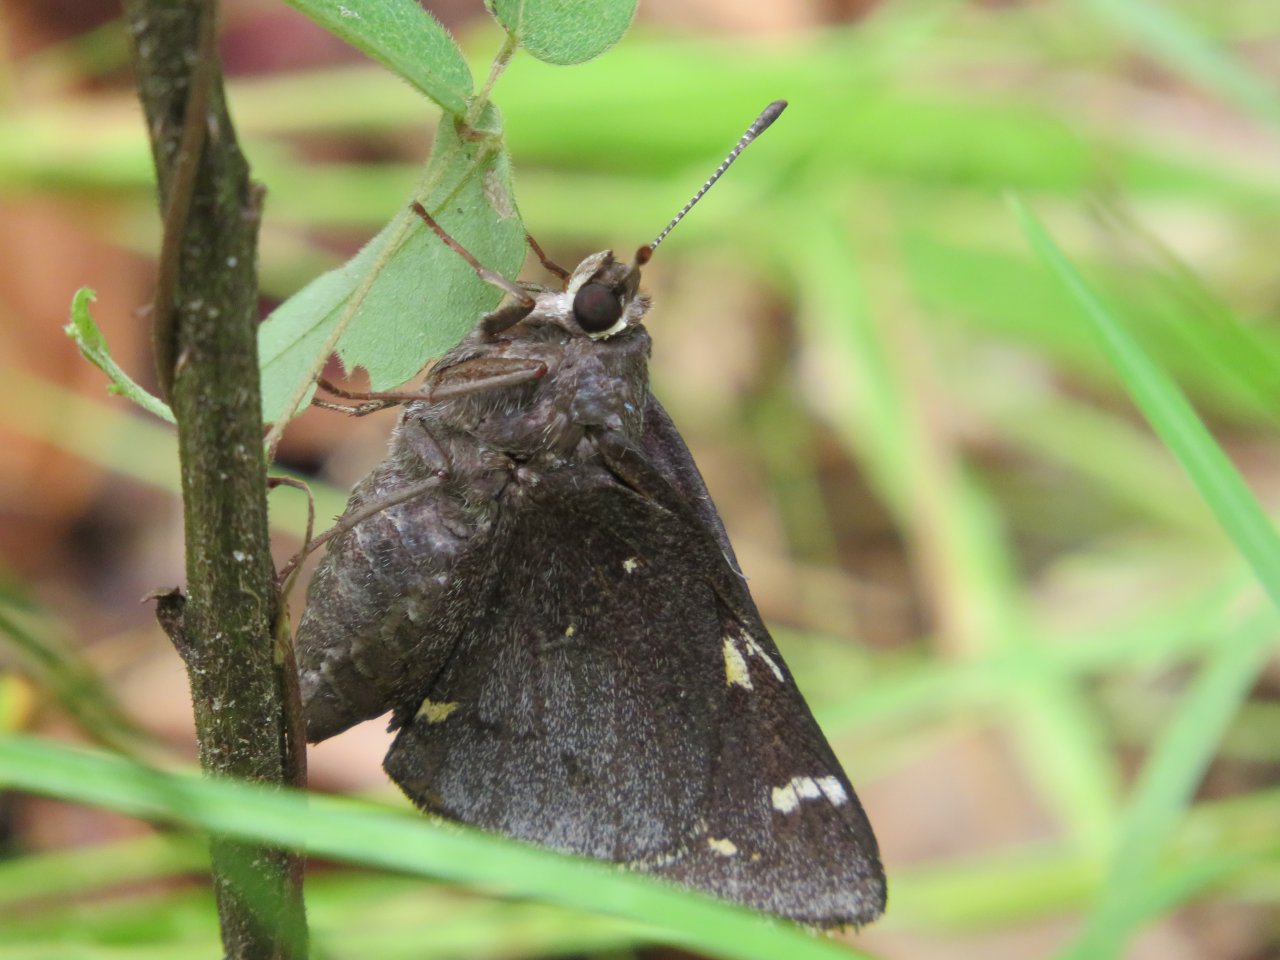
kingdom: Animalia
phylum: Arthropoda
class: Insecta
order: Lepidoptera
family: Hesperiidae
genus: Megathymus
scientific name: Megathymus cofaqui
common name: Cofaqui Giant-Skipper
